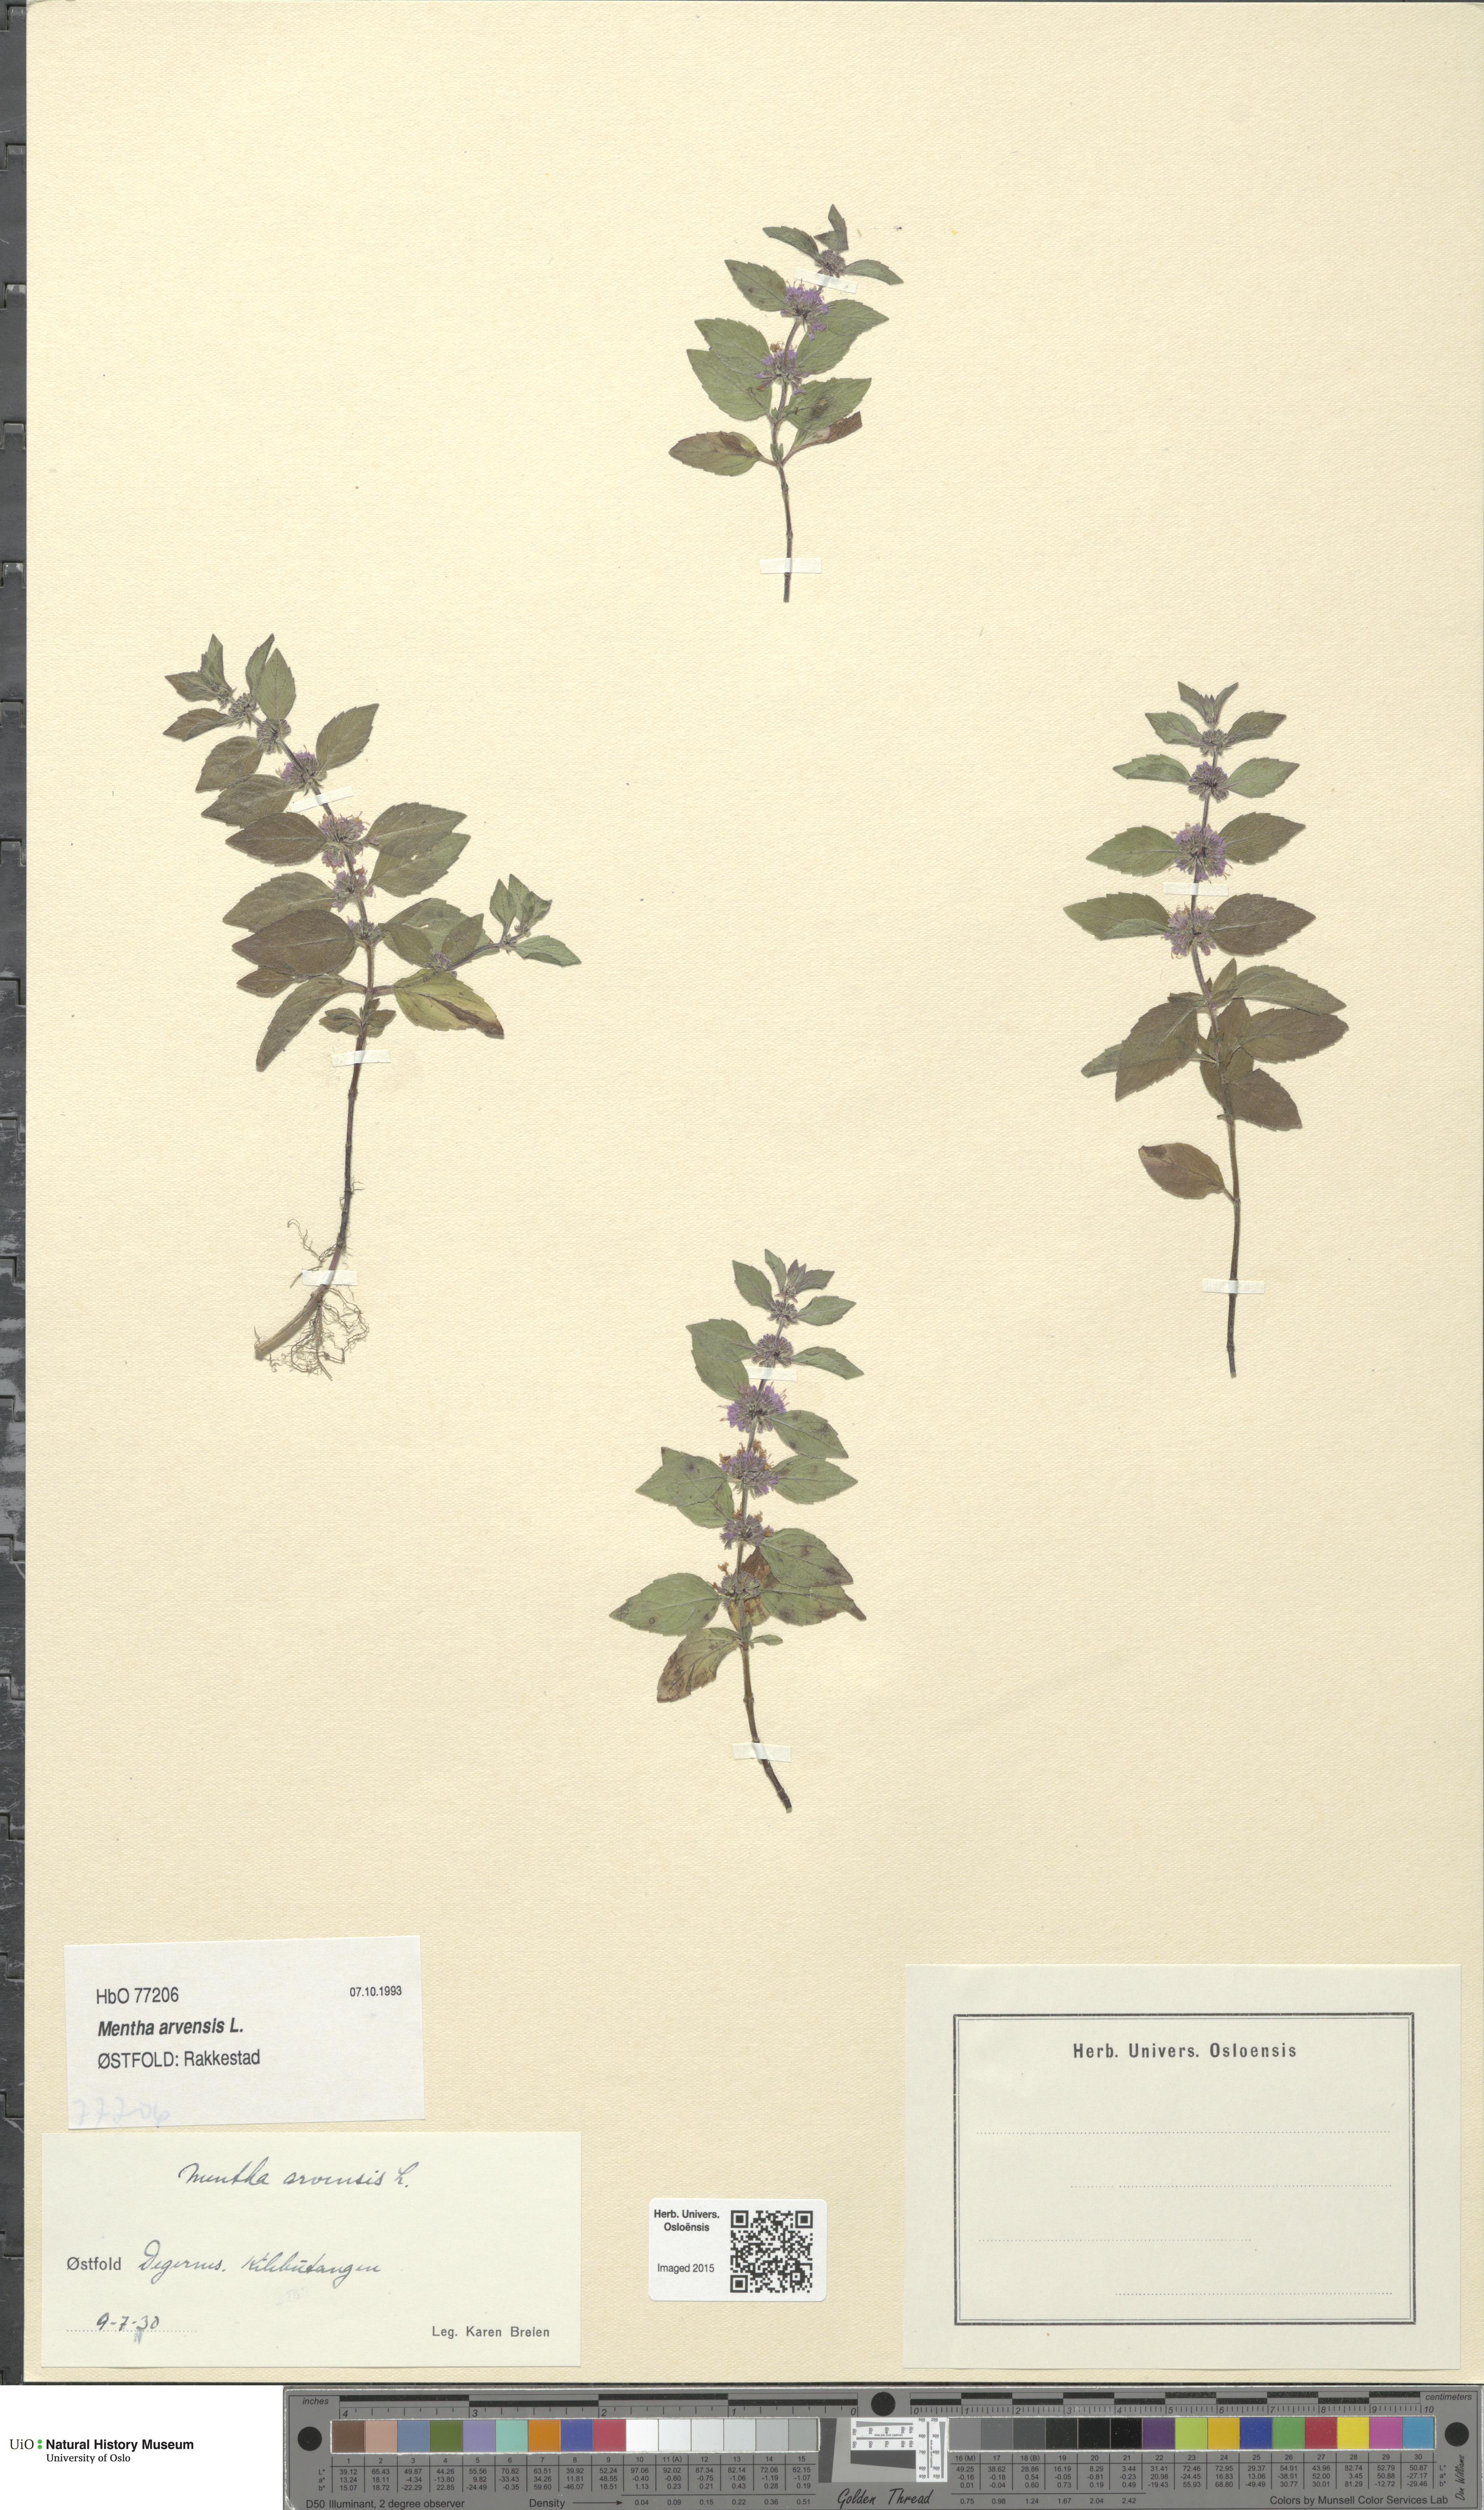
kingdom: Plantae
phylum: Tracheophyta
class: Magnoliopsida
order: Lamiales
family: Lamiaceae
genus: Mentha
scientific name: Mentha arvensis
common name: Corn mint
